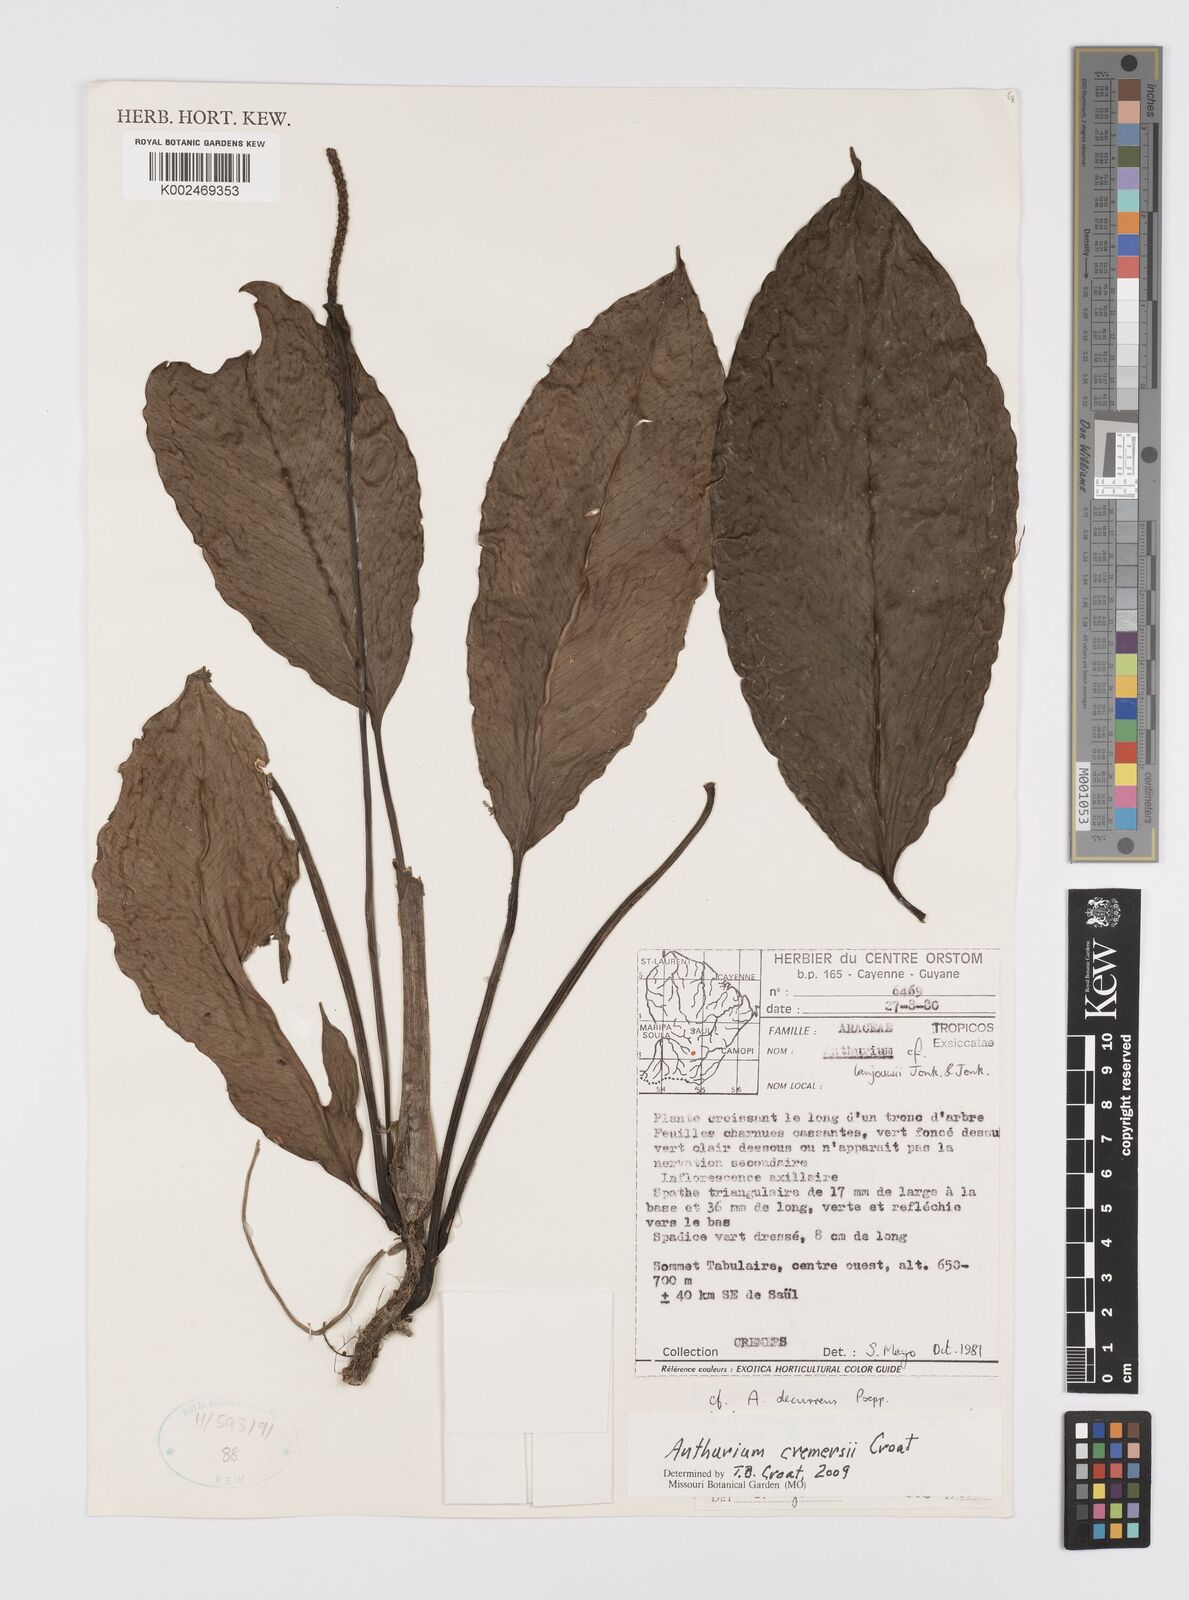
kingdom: Plantae
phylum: Tracheophyta
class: Liliopsida
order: Alismatales
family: Araceae
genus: Anthurium
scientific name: Anthurium cremersii
